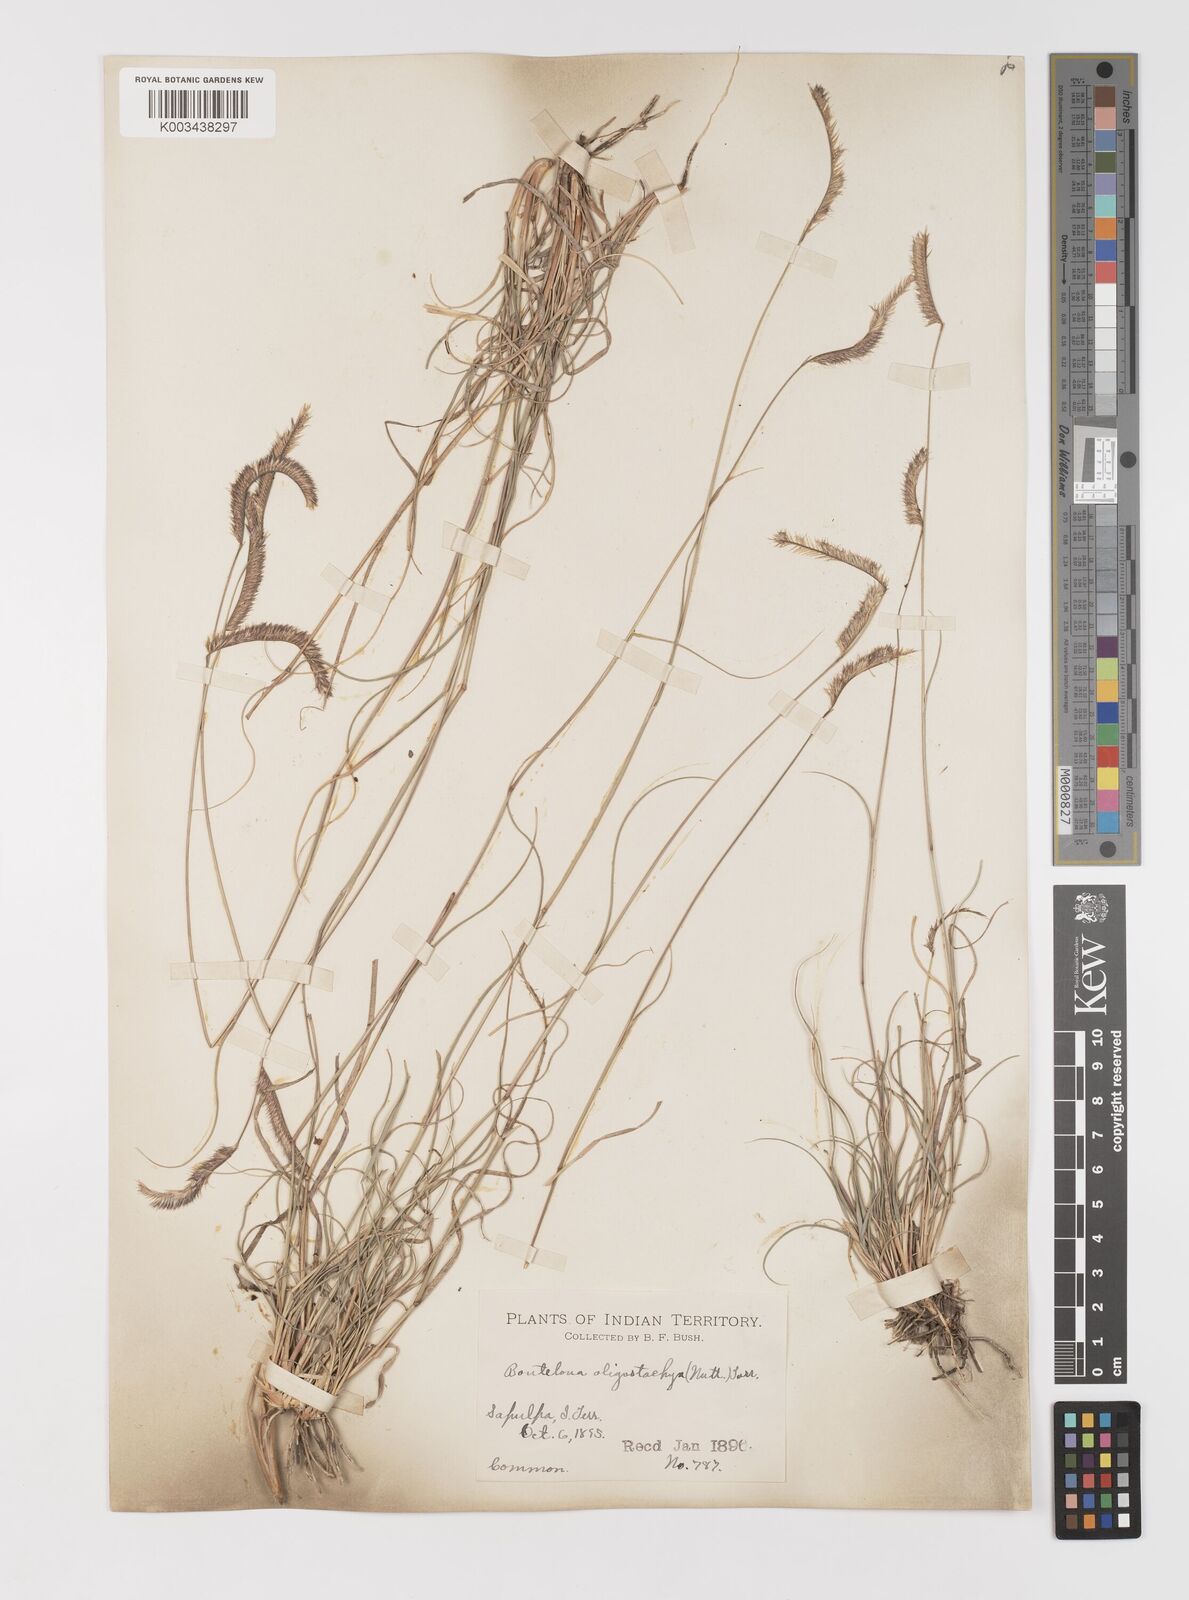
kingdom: Plantae
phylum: Tracheophyta
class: Liliopsida
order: Poales
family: Poaceae
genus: Bouteloua
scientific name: Bouteloua
